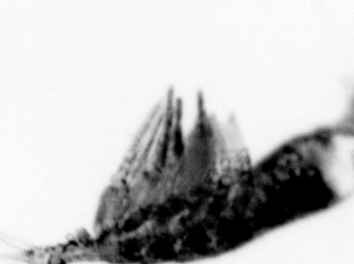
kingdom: Animalia
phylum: Arthropoda
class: Copepoda
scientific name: Copepoda
